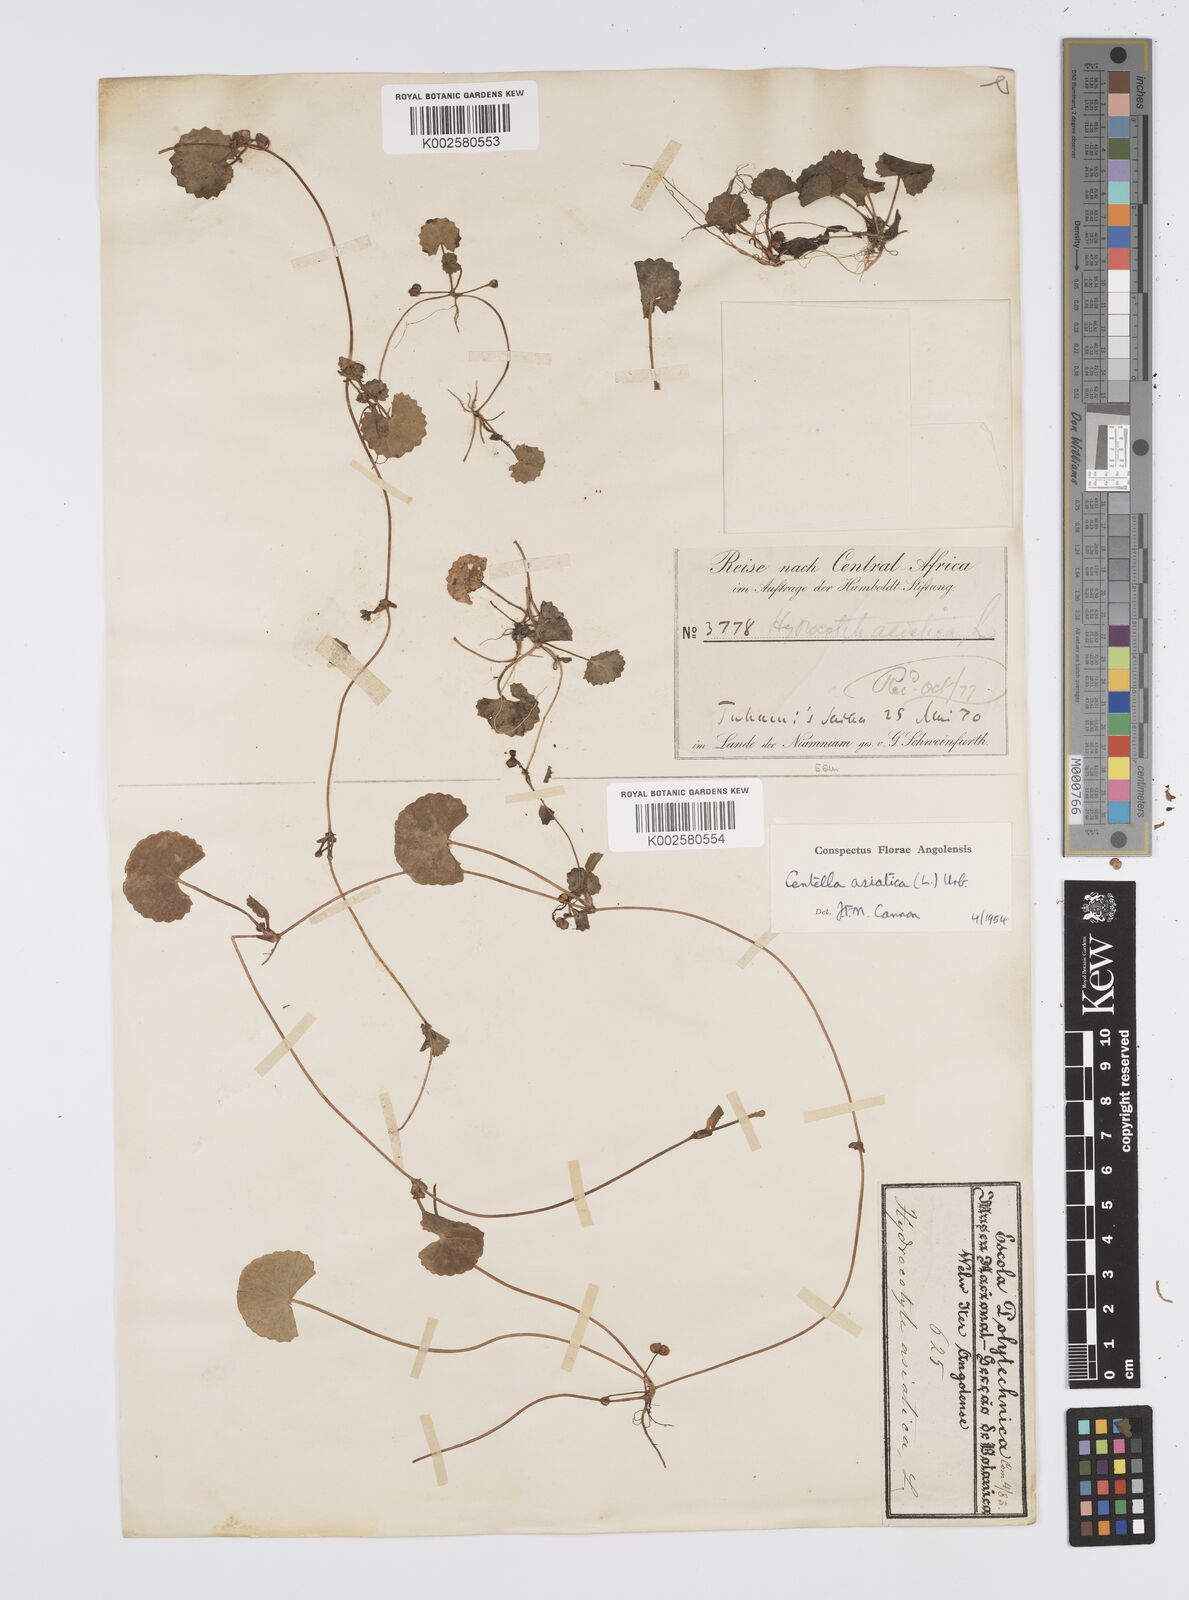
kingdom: Plantae
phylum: Tracheophyta
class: Magnoliopsida
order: Apiales
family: Apiaceae
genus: Centella
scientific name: Centella asiatica
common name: Spadeleaf
